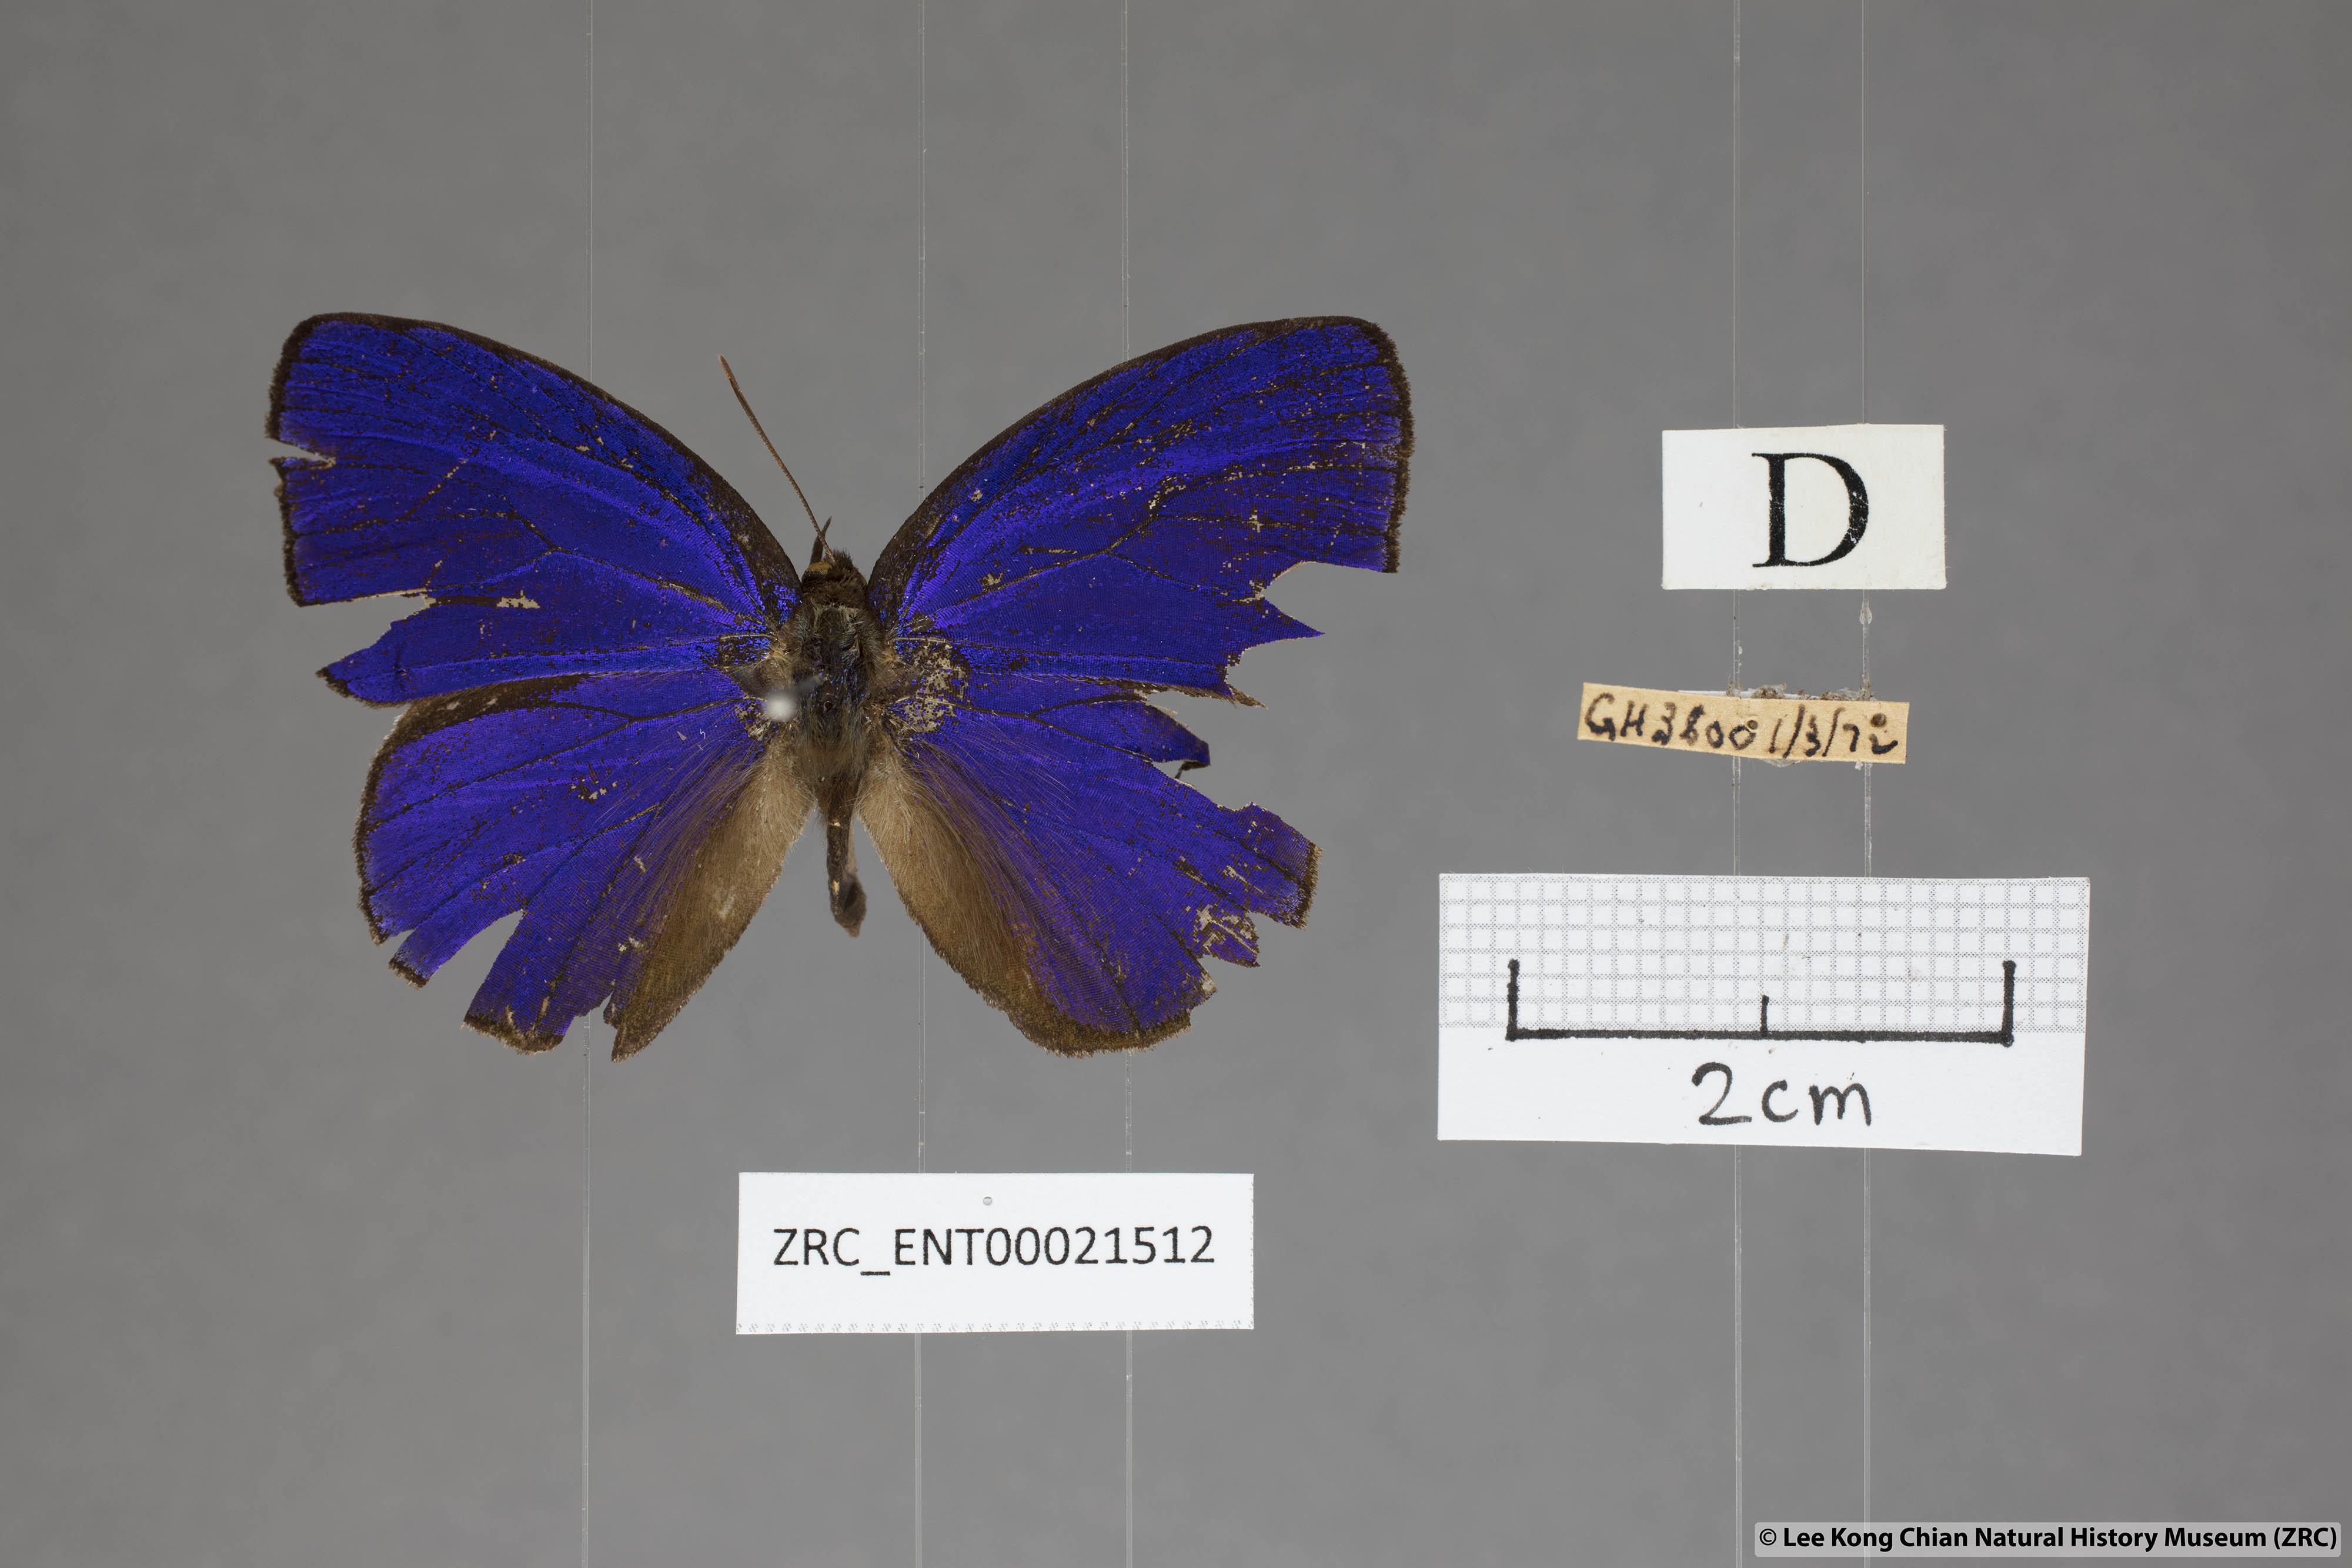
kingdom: Animalia
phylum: Arthropoda
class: Insecta
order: Lepidoptera
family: Lycaenidae
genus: Flos
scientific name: Flos
